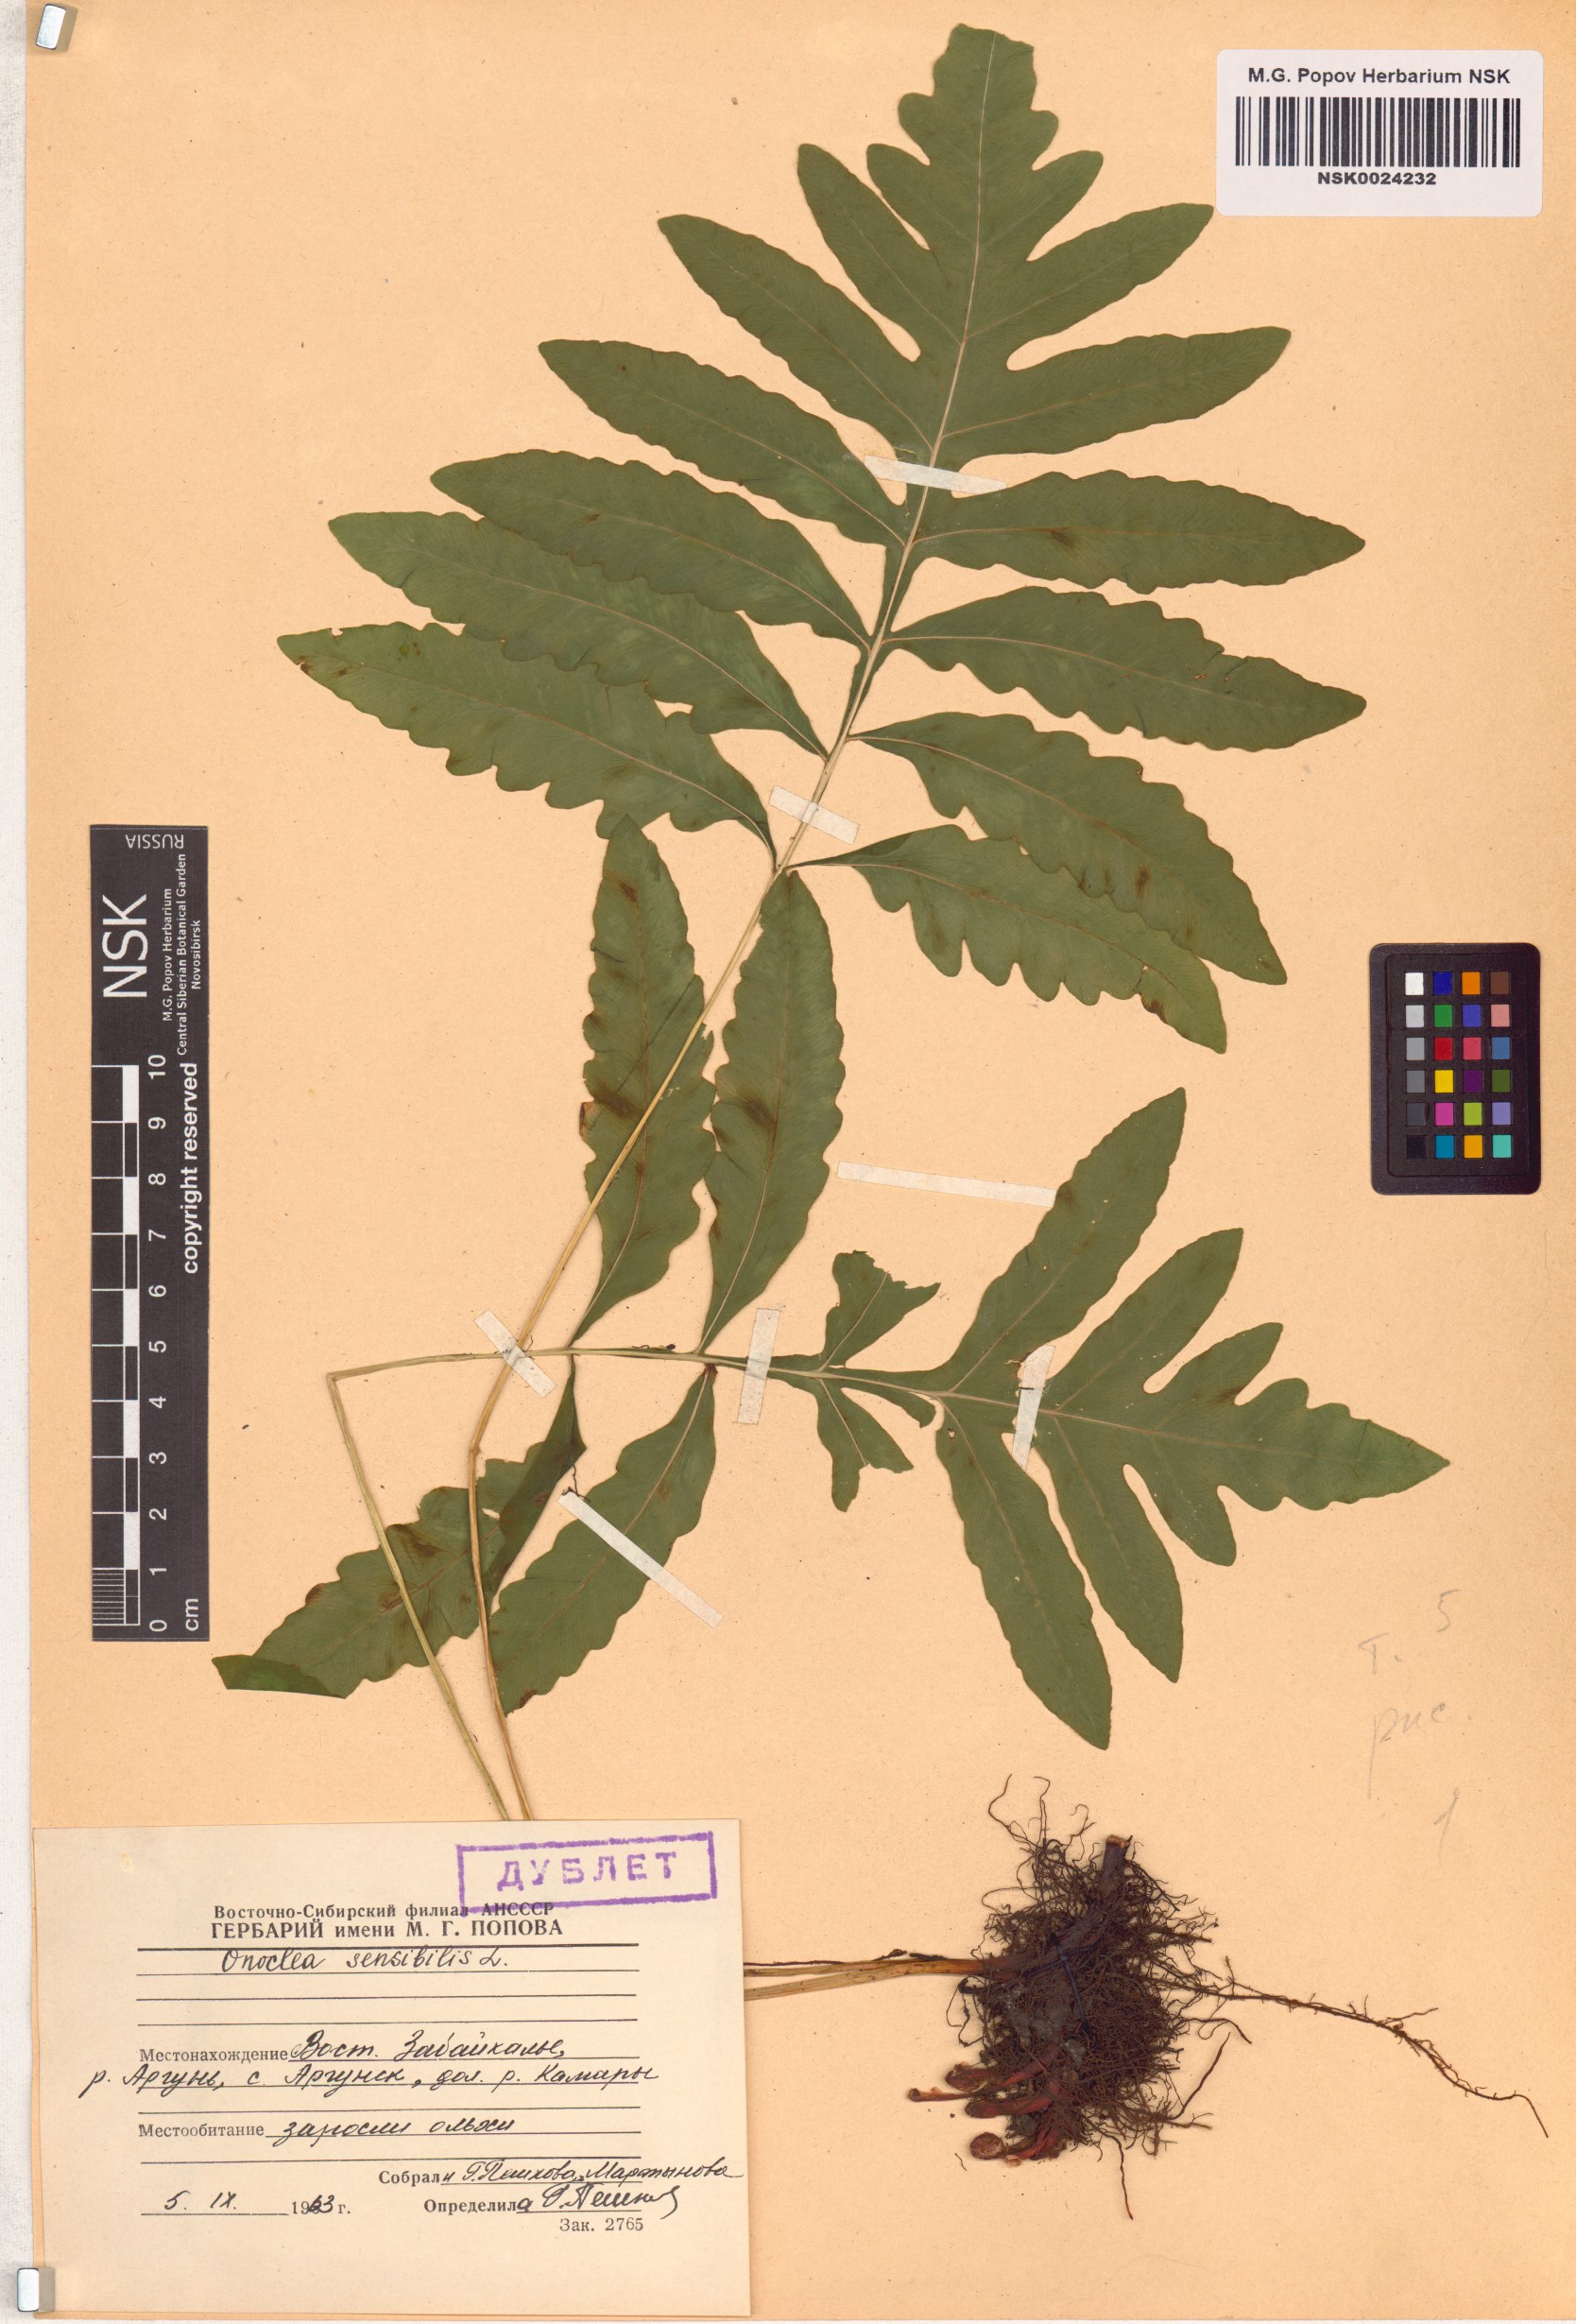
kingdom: Plantae
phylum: Tracheophyta
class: Polypodiopsida
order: Polypodiales
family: Onocleaceae
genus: Onoclea
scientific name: Onoclea sensibilis
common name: Sensitive fern
